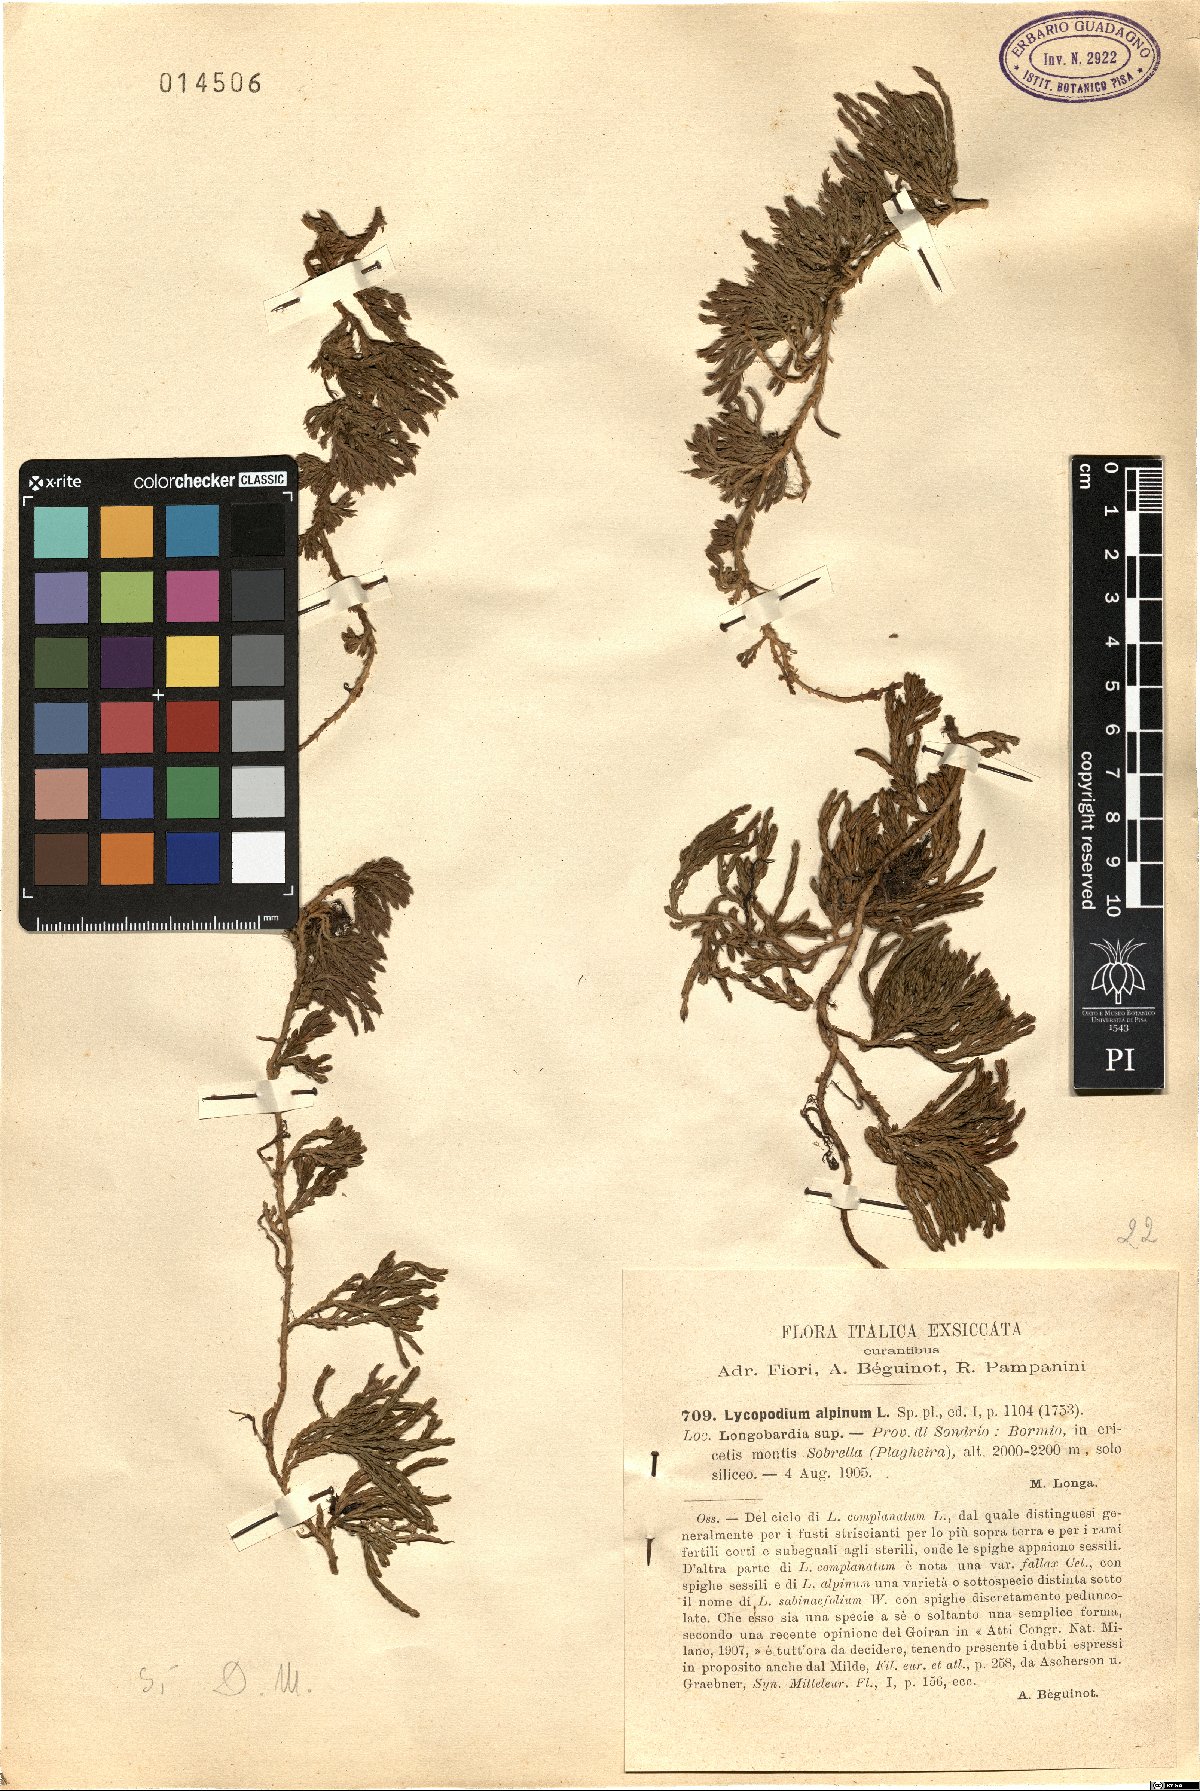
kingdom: Plantae
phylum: Tracheophyta
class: Lycopodiopsida
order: Lycopodiales
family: Lycopodiaceae
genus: Diphasiastrum
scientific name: Diphasiastrum alpinum
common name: Alpine clubmoss
